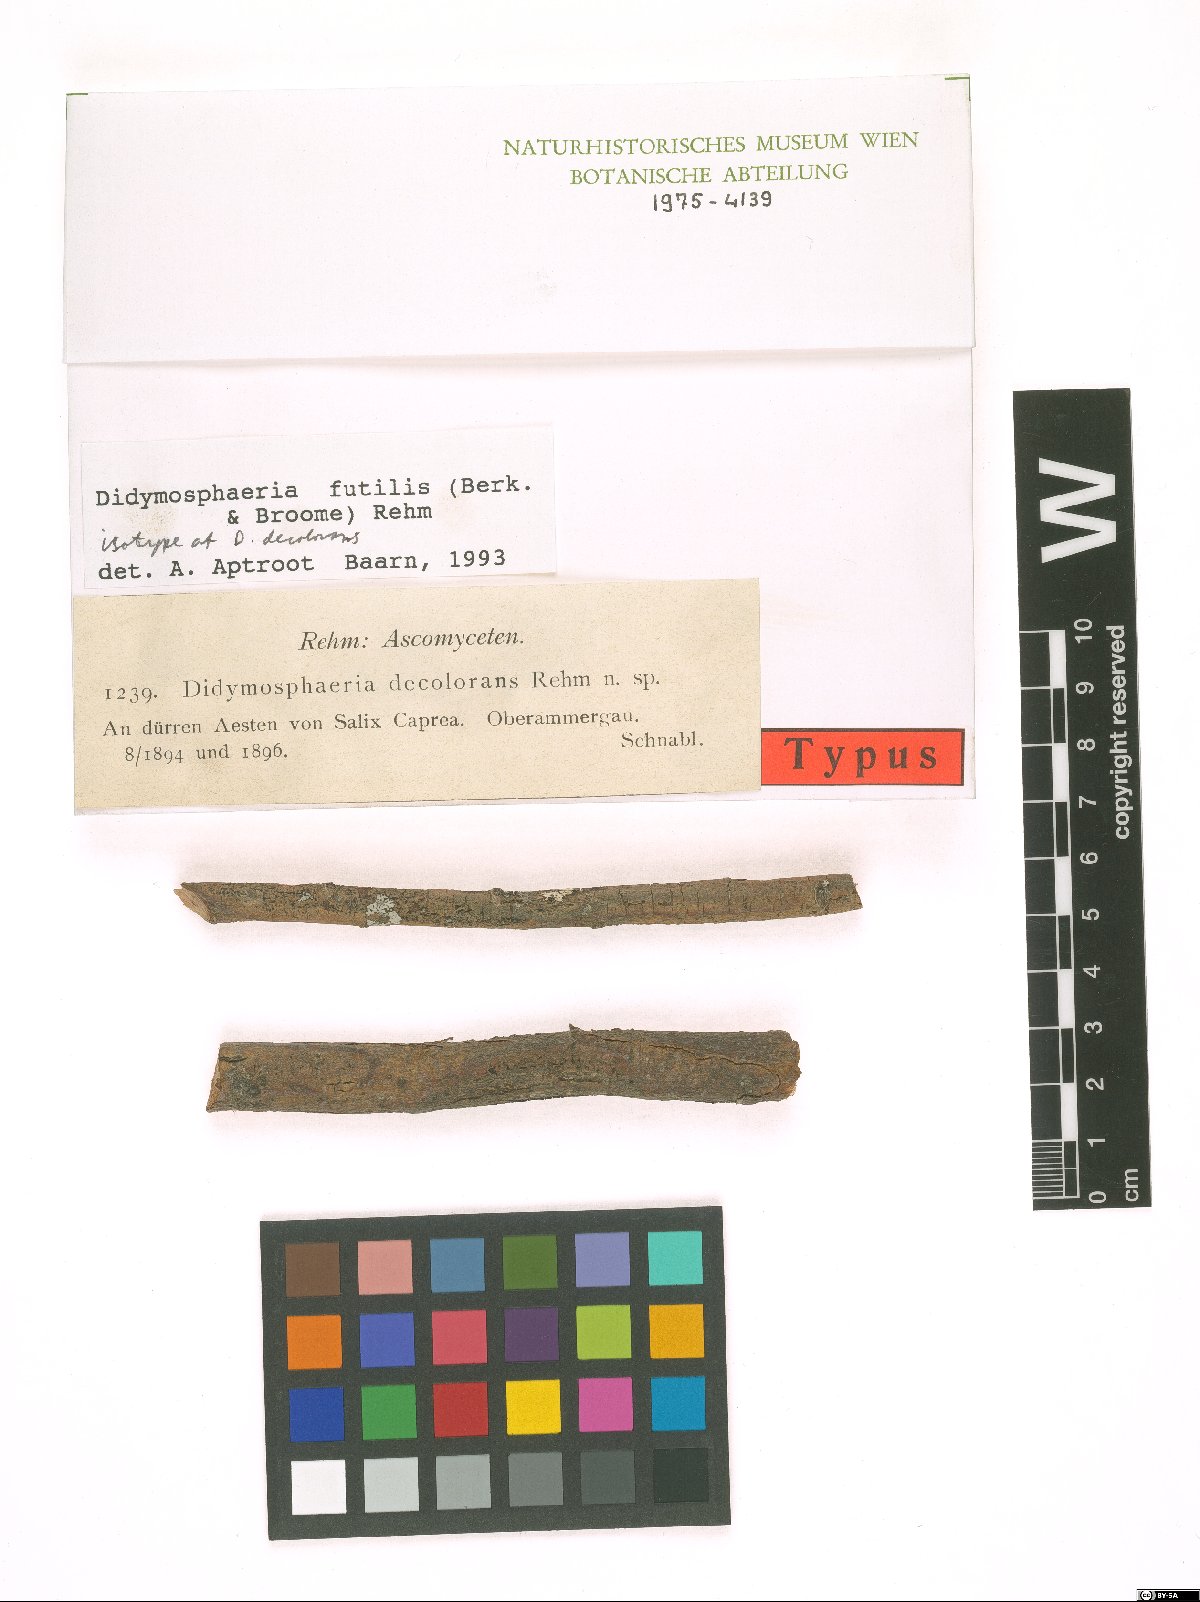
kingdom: Fungi
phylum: Ascomycota
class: Dothideomycetes
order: Pleosporales
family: Didymosphaeriaceae
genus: Didymosphaeria
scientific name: Didymosphaeria decolorans
